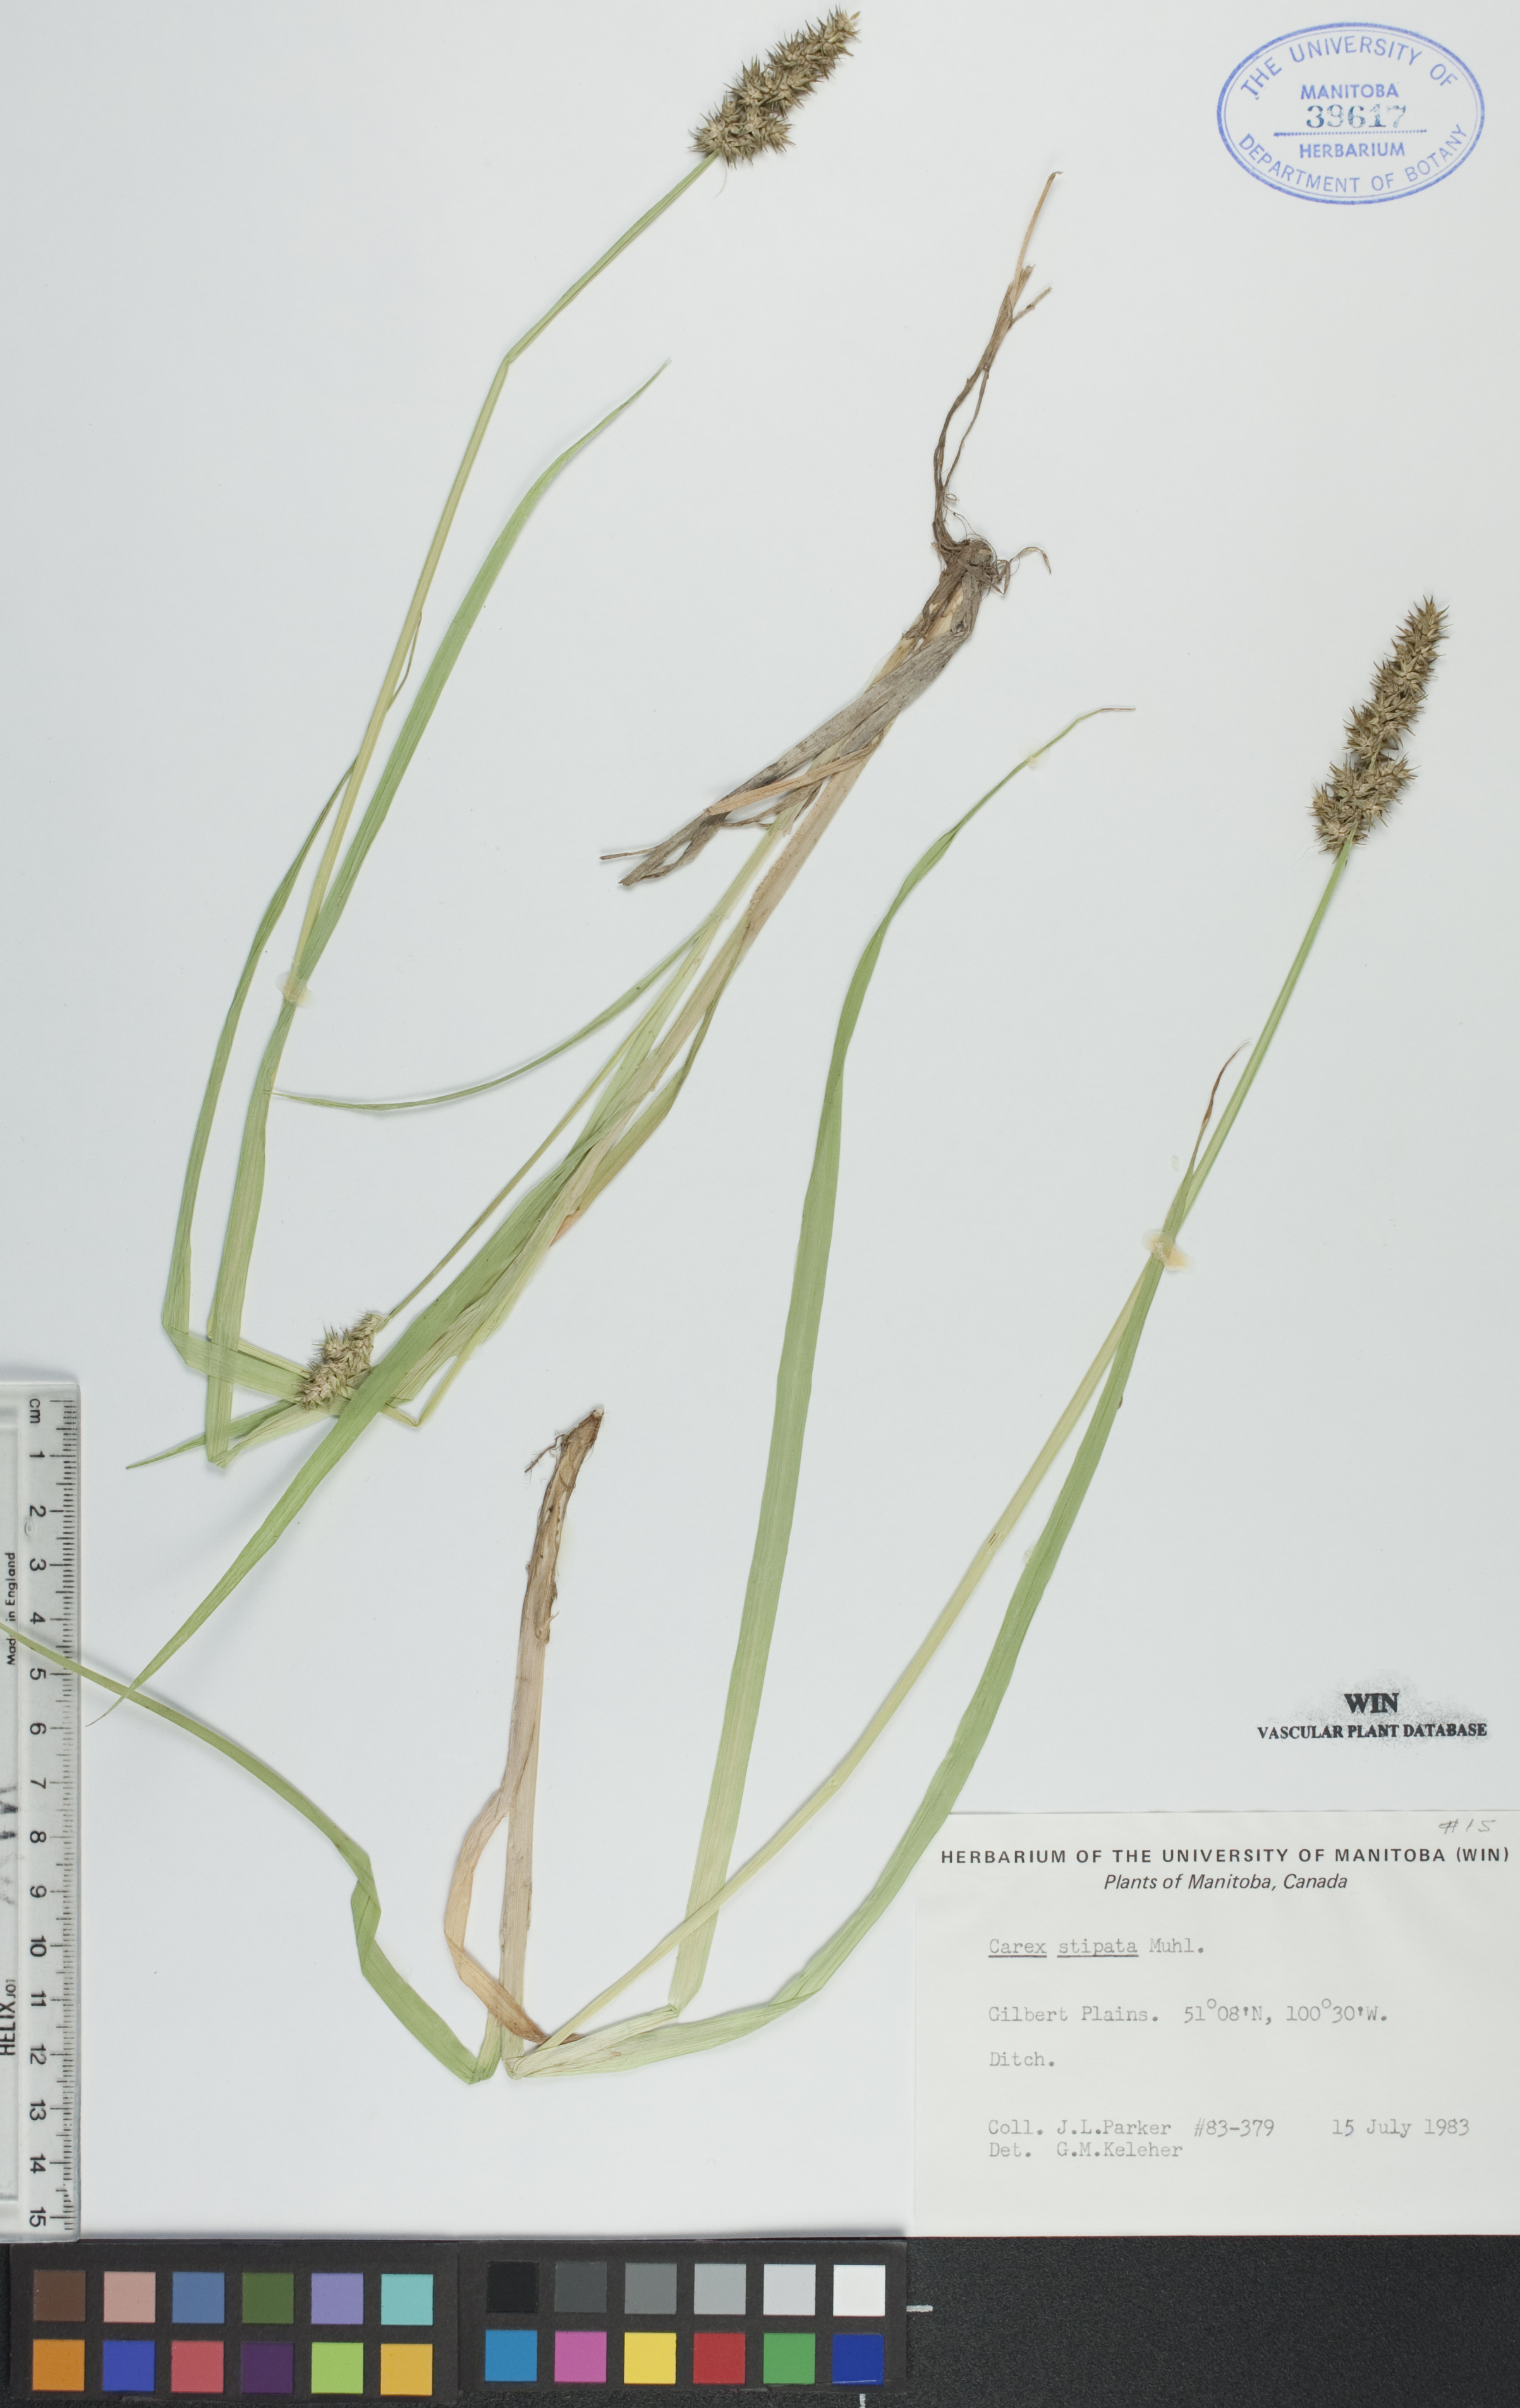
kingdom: Plantae
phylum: Tracheophyta
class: Liliopsida
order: Poales
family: Cyperaceae
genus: Carex
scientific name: Carex stipata
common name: Awl-fruited sedge
